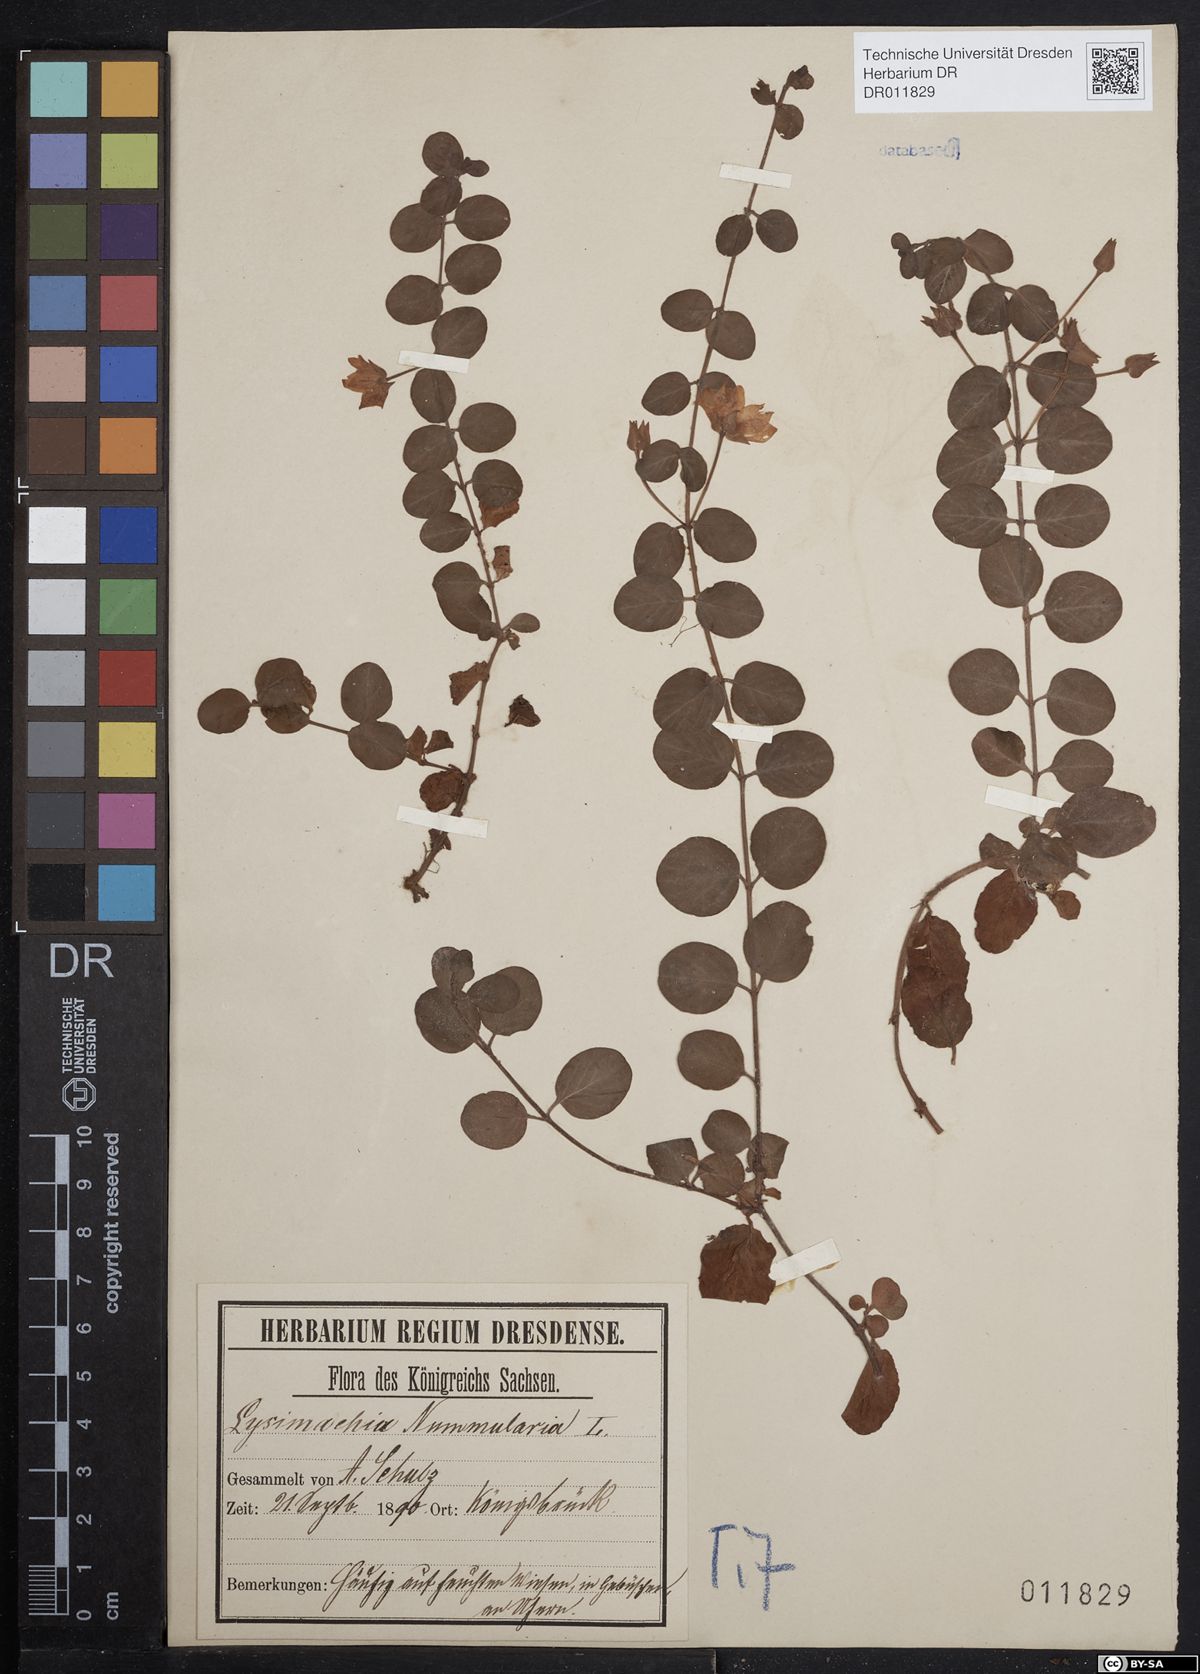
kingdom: Plantae
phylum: Tracheophyta
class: Magnoliopsida
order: Ericales
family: Primulaceae
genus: Lysimachia
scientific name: Lysimachia nummularia
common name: Moneywort
